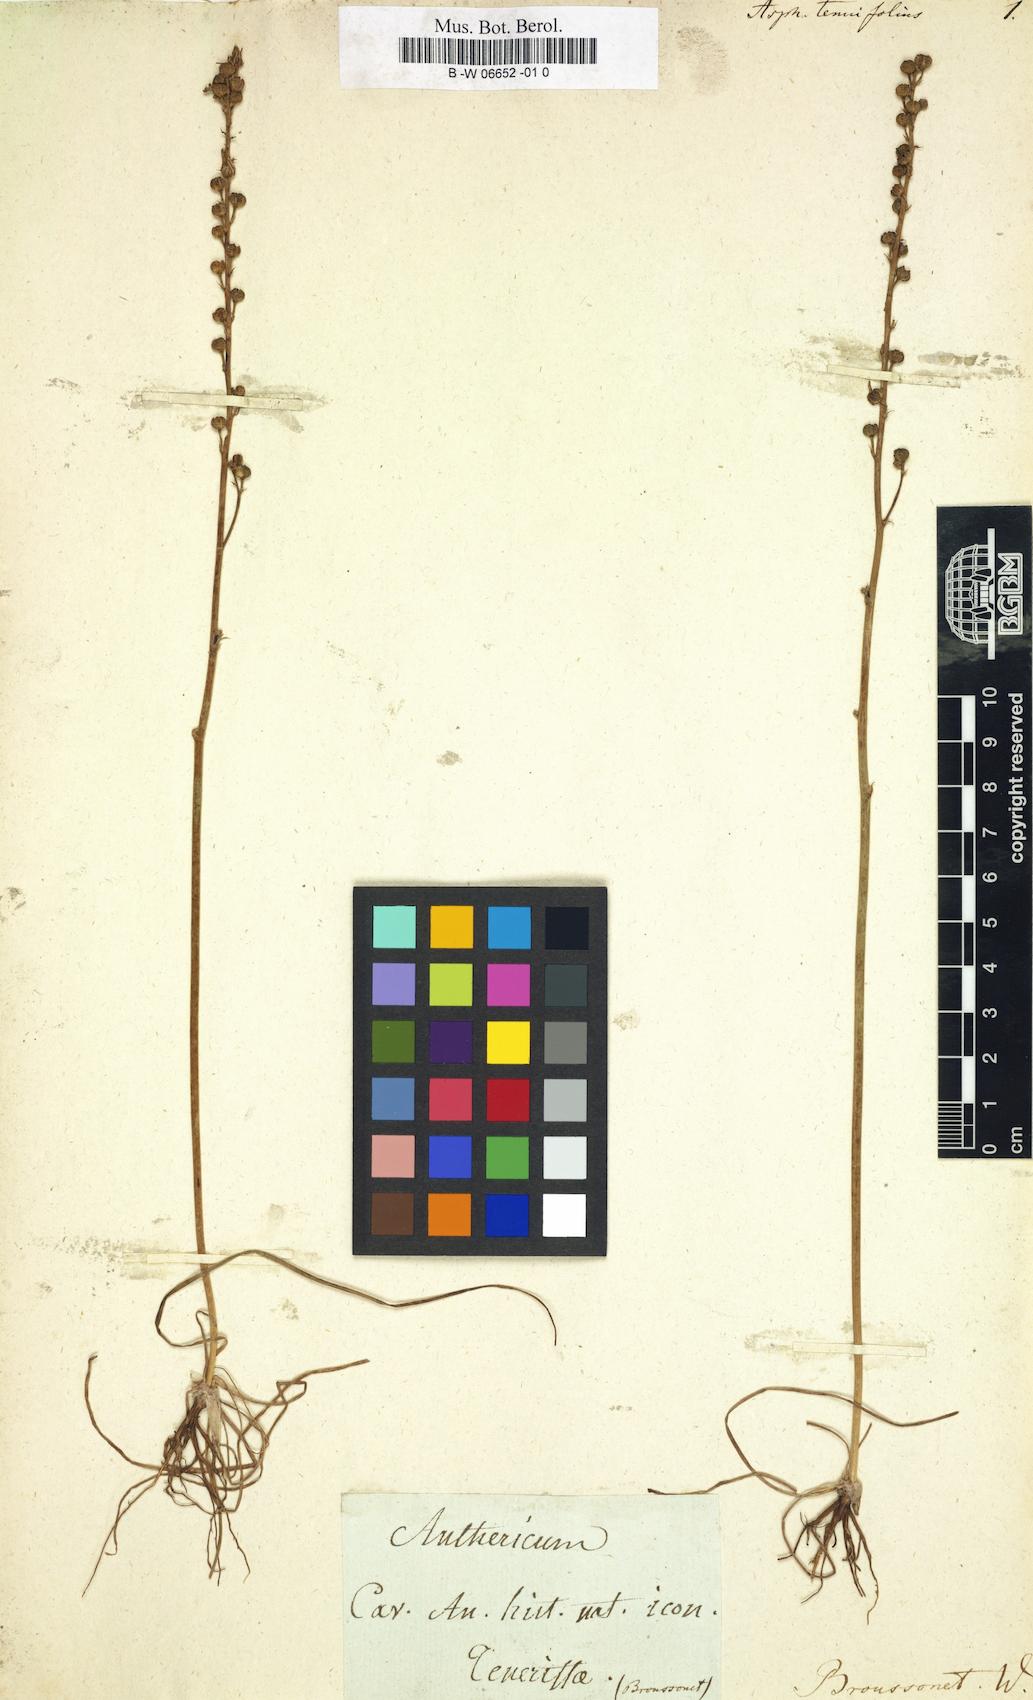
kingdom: Plantae
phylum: Tracheophyta
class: Liliopsida
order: Asparagales
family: Asphodelaceae
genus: Asphodelus
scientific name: Asphodelus tenuifolius
